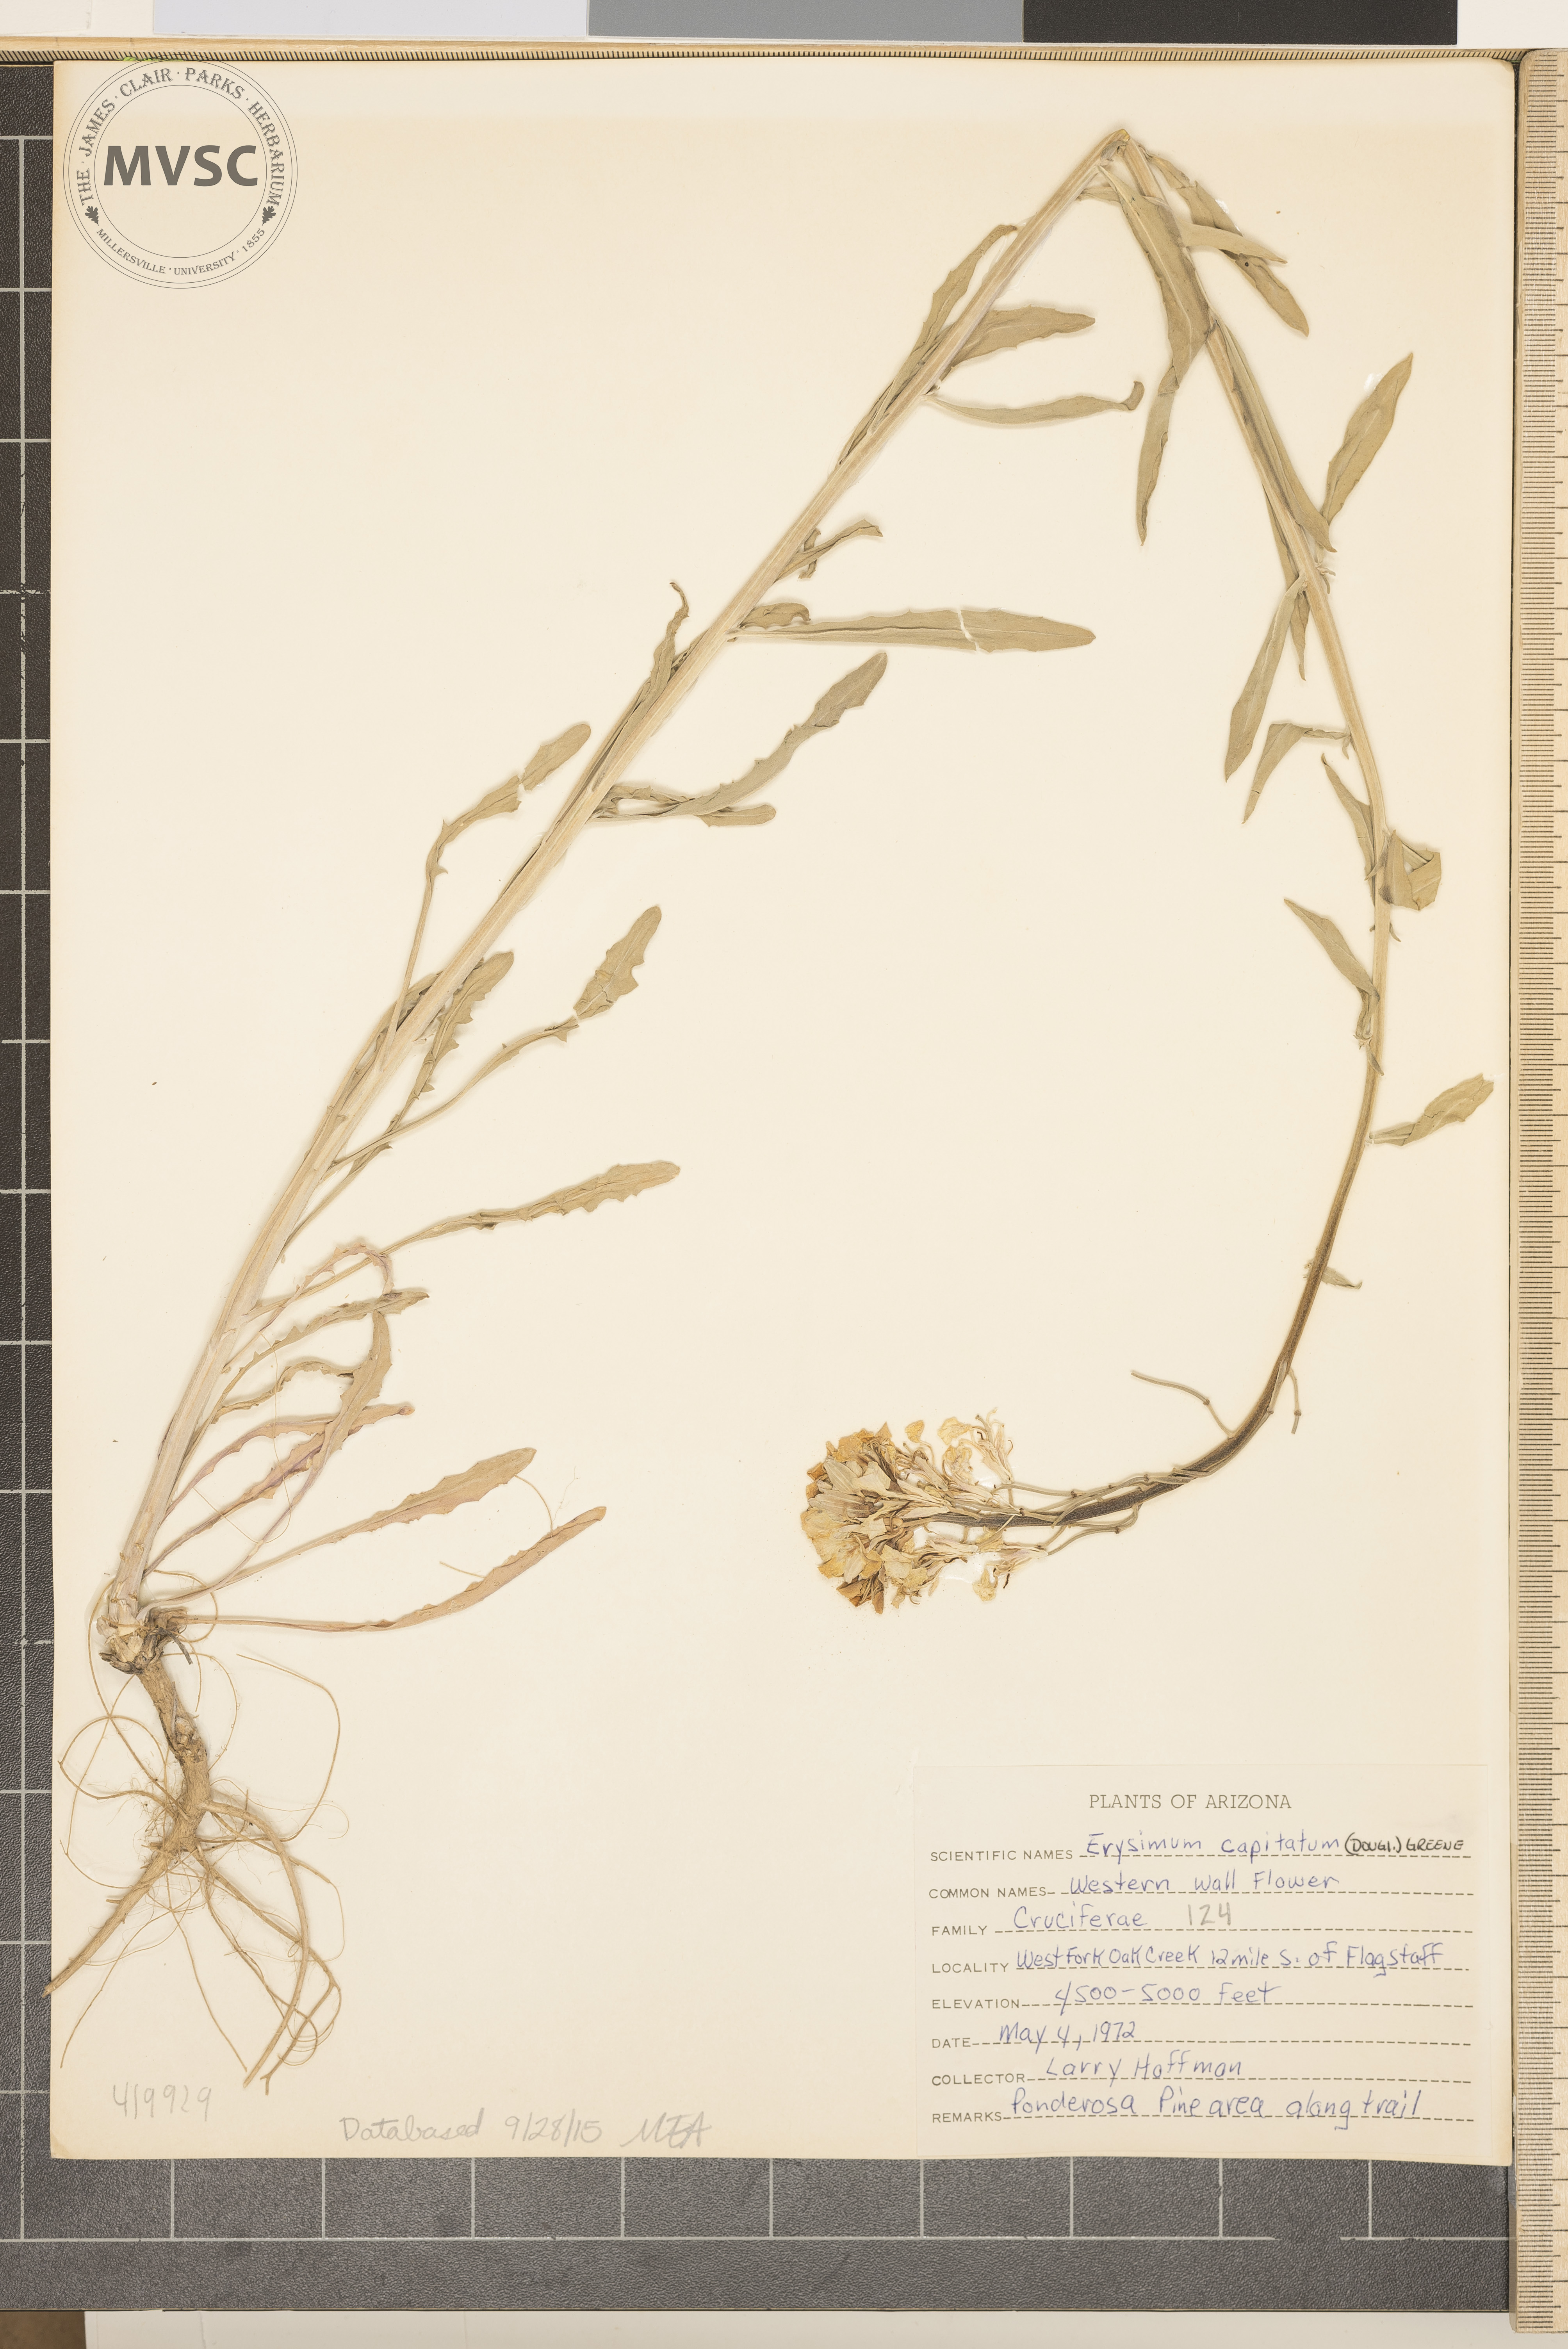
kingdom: Plantae
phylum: Tracheophyta
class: Magnoliopsida
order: Brassicales
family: Brassicaceae
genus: Erysimum
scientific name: Erysimum capitatum
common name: Western Wallflower
